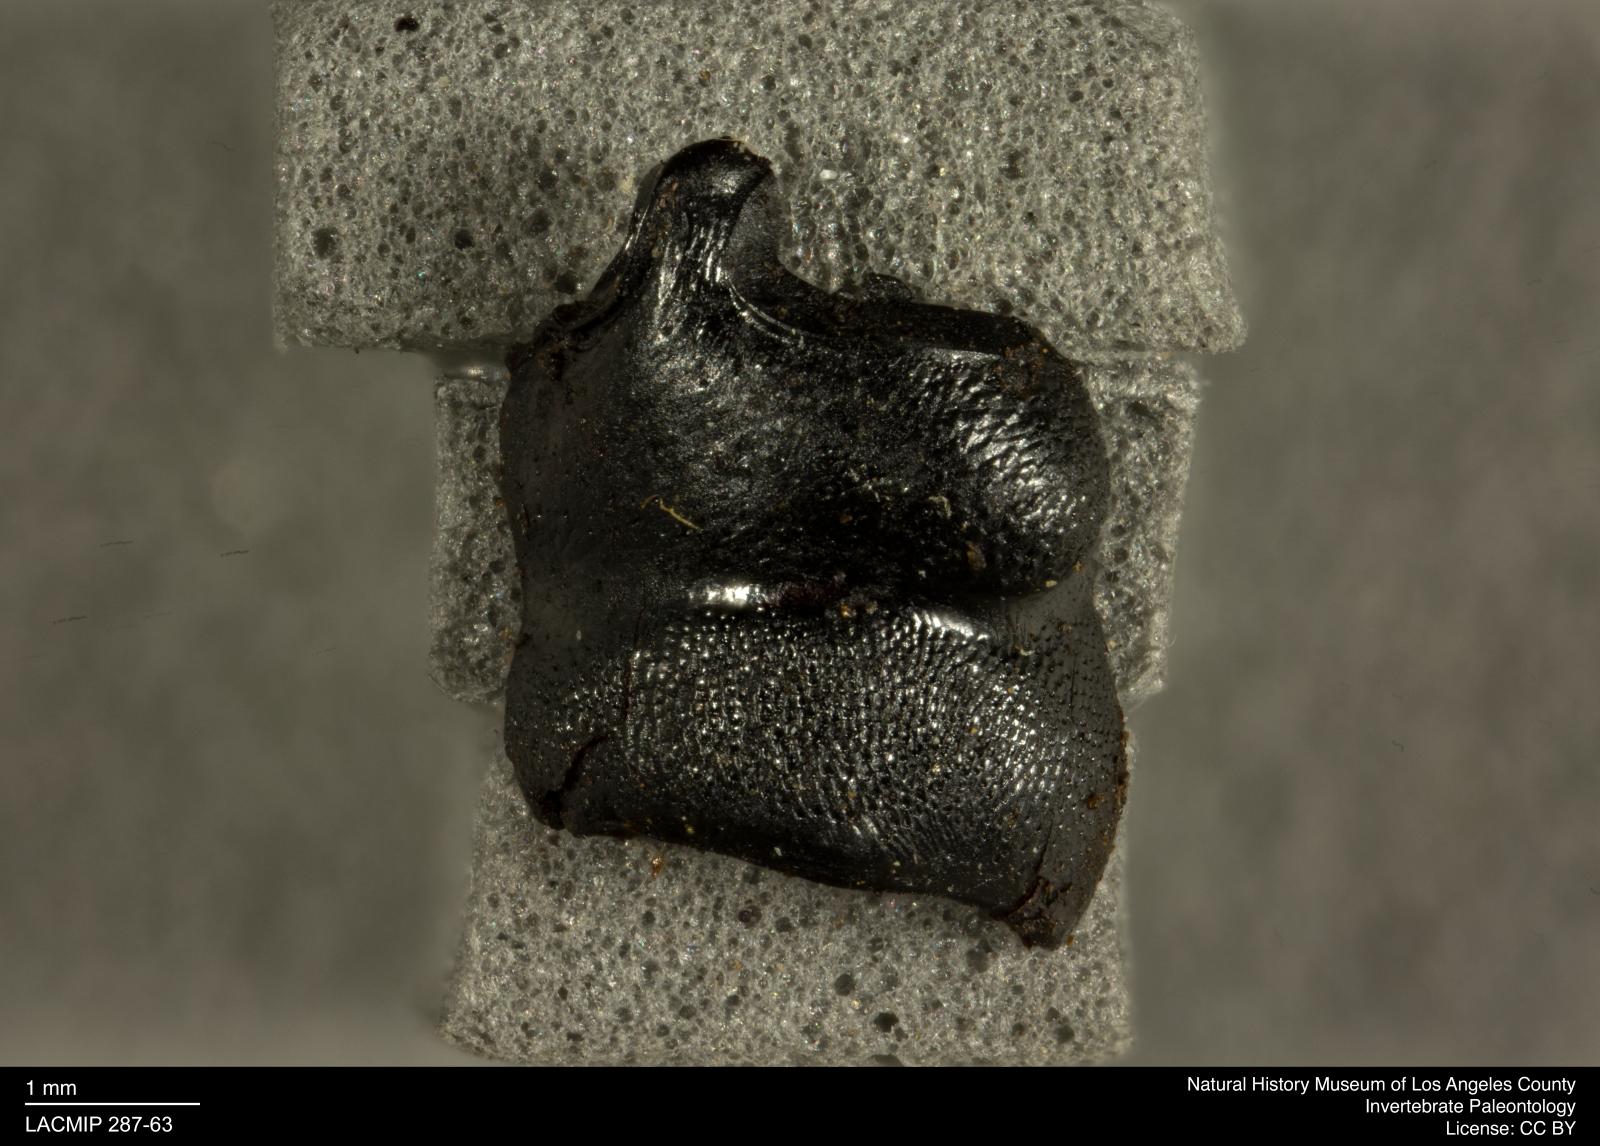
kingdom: Animalia
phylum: Arthropoda
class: Insecta
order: Coleoptera
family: Staphylinidae
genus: Nicrophorus
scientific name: Nicrophorus marginatus
